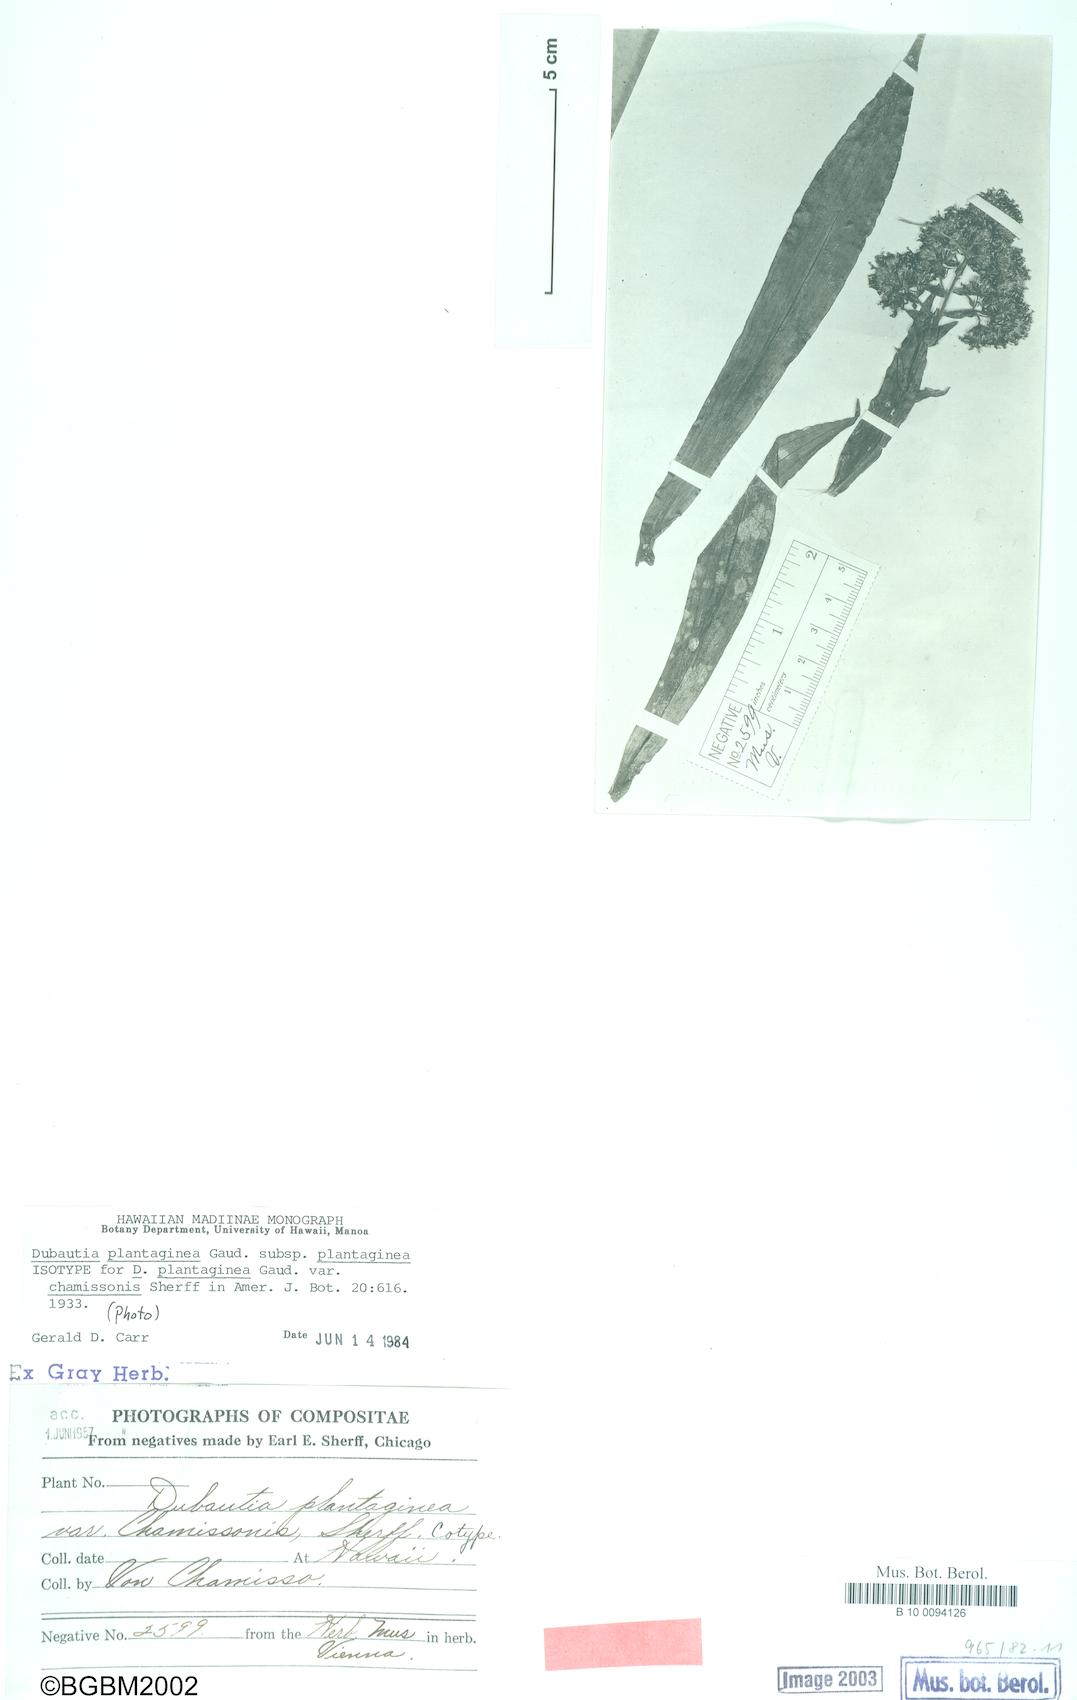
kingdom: Plantae
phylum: Tracheophyta
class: Magnoliopsida
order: Asterales
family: Asteraceae
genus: Dubautia
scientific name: Dubautia plantaginea
